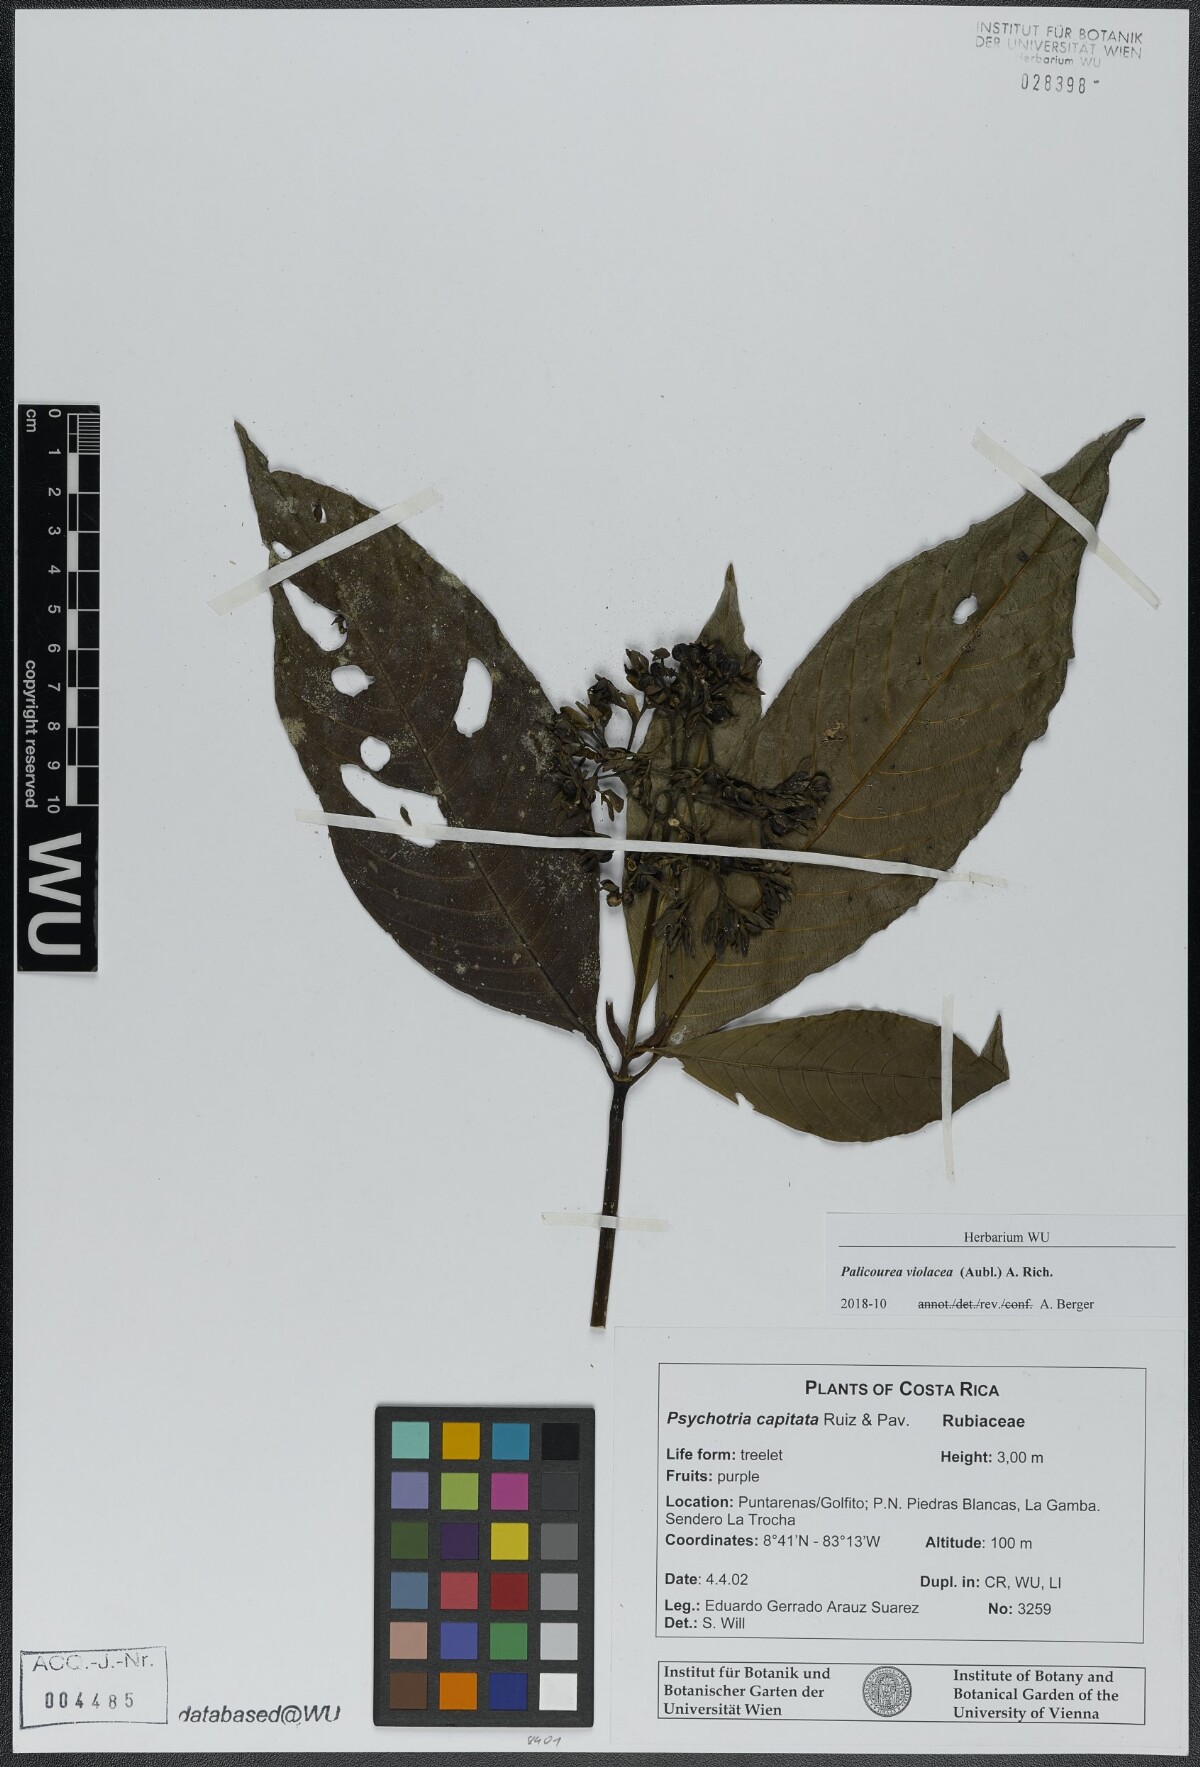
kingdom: Plantae
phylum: Tracheophyta
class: Magnoliopsida
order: Gentianales
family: Rubiaceae
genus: Palicourea
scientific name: Palicourea violacea
